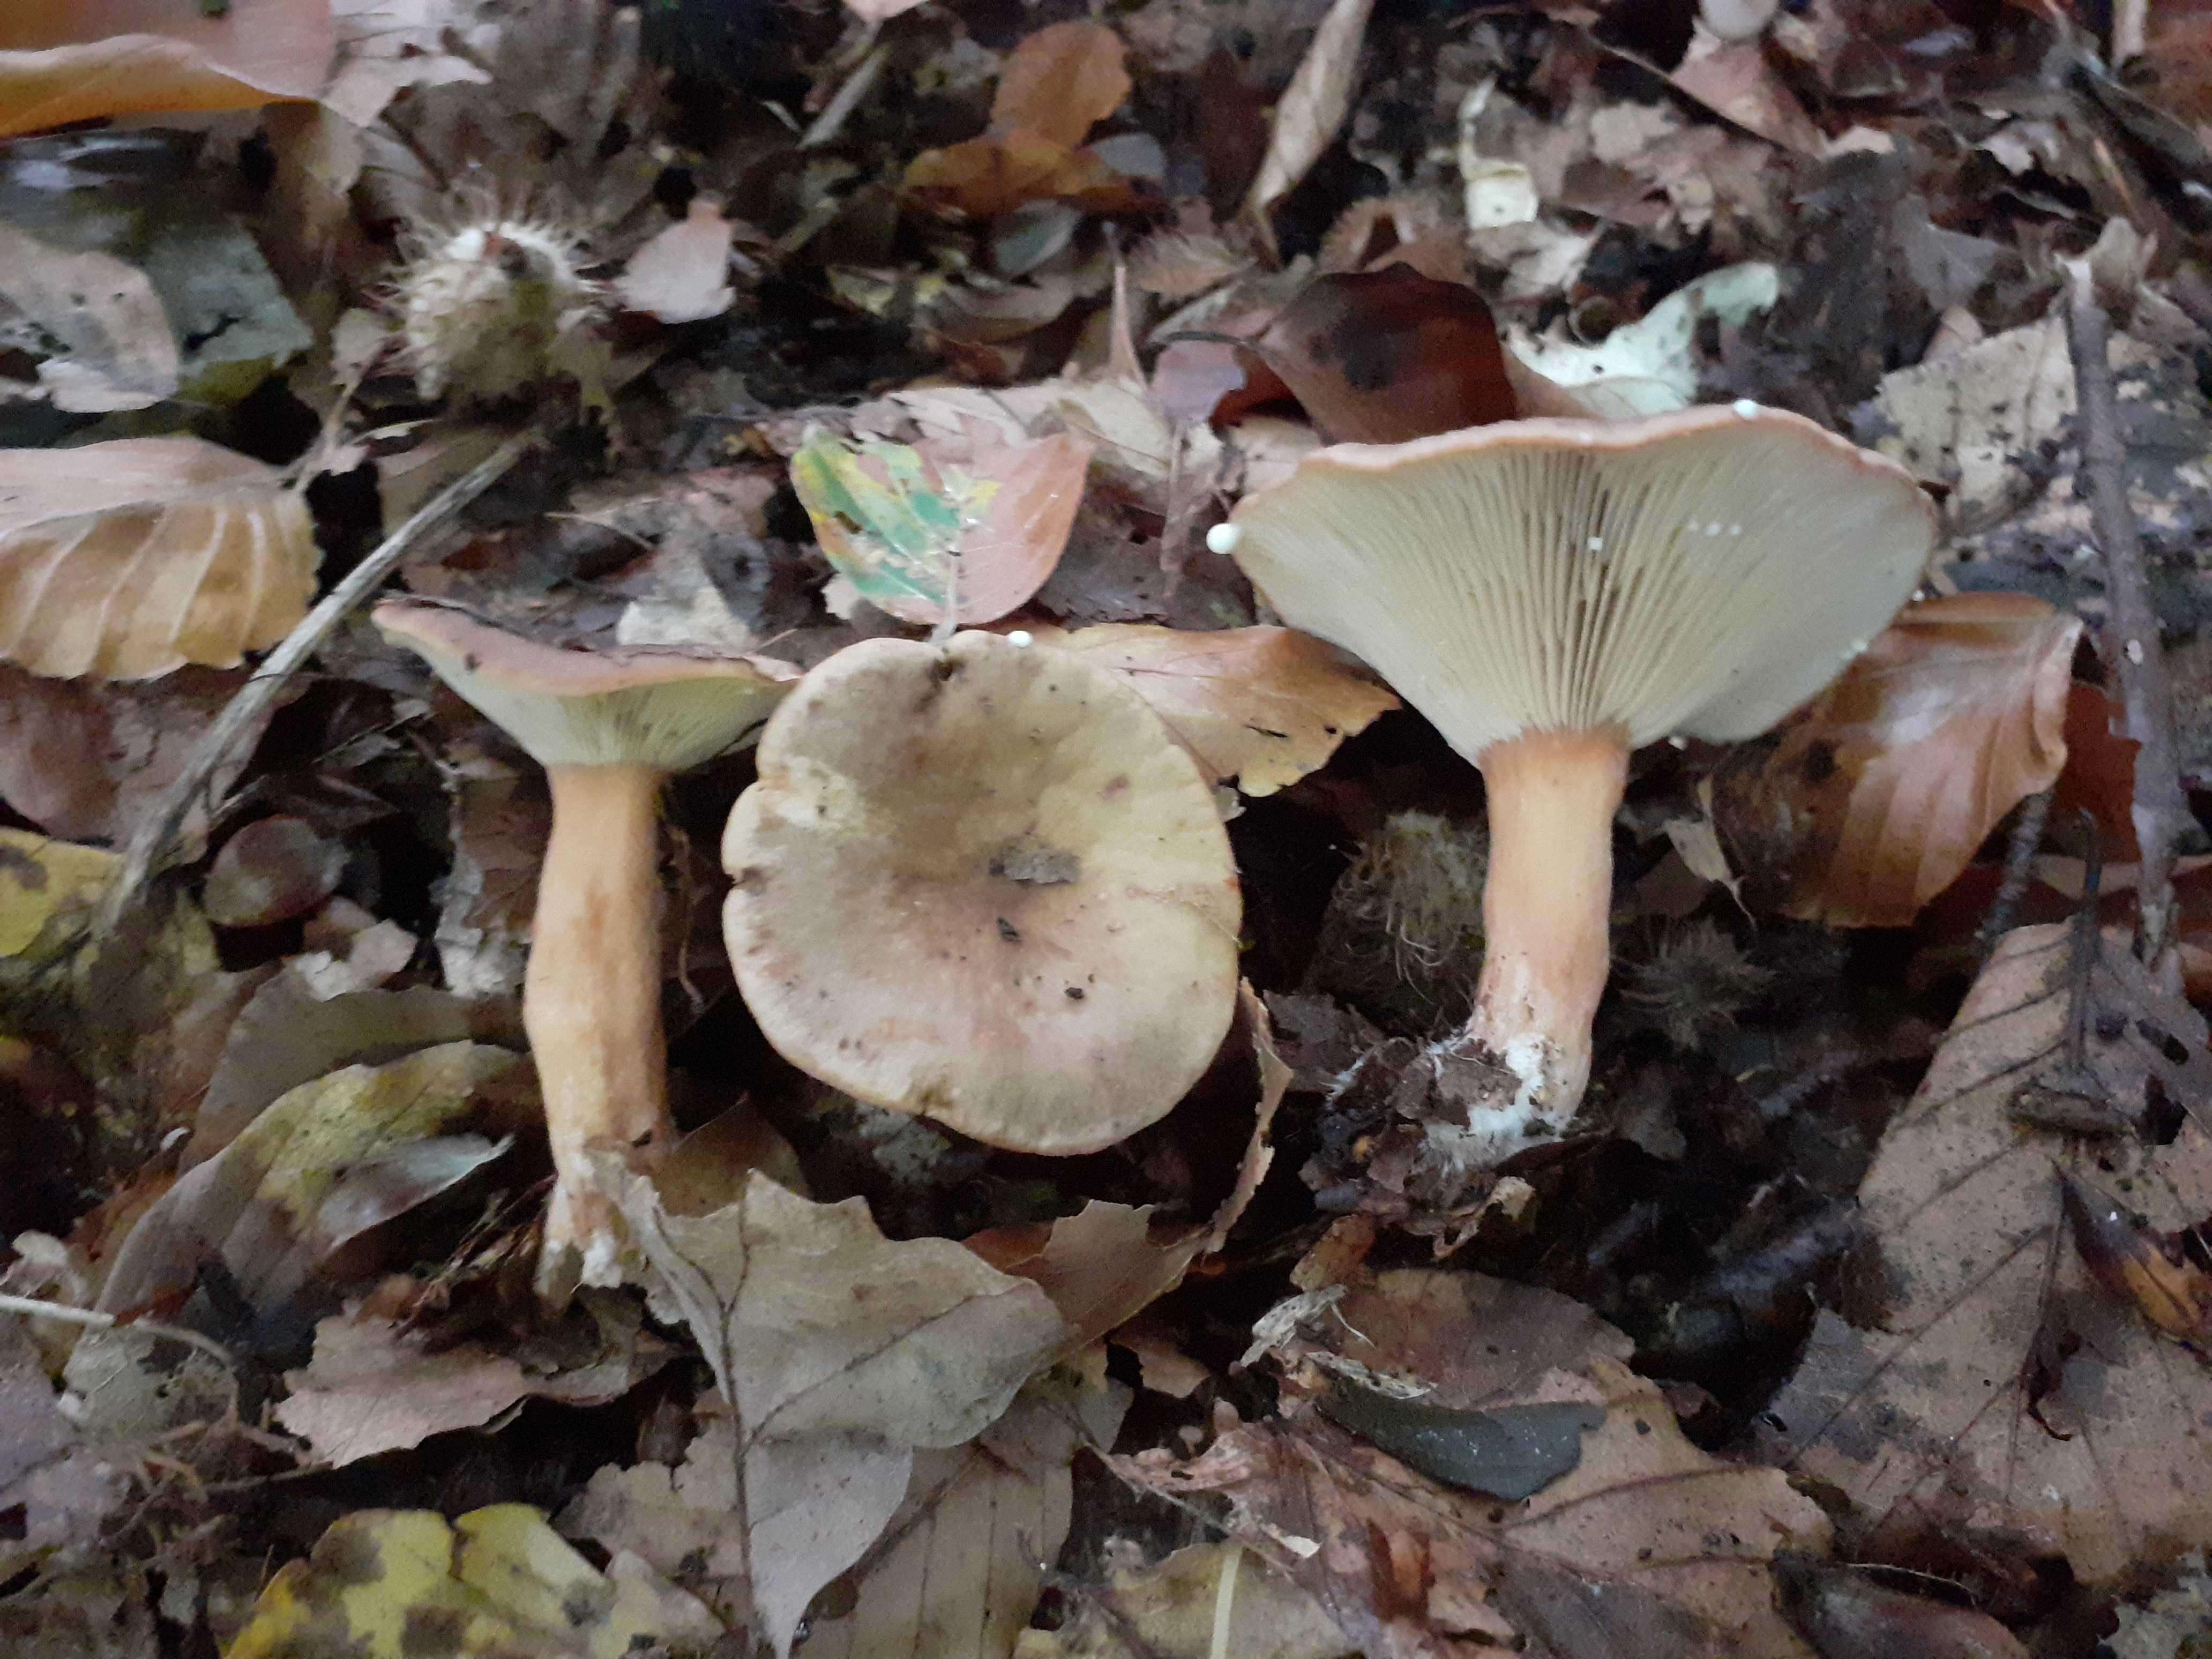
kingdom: Fungi
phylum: Basidiomycota
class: Agaricomycetes
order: Russulales
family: Russulaceae
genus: Lactarius
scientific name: Lactarius subdulcis
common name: sødlig mælkehat
